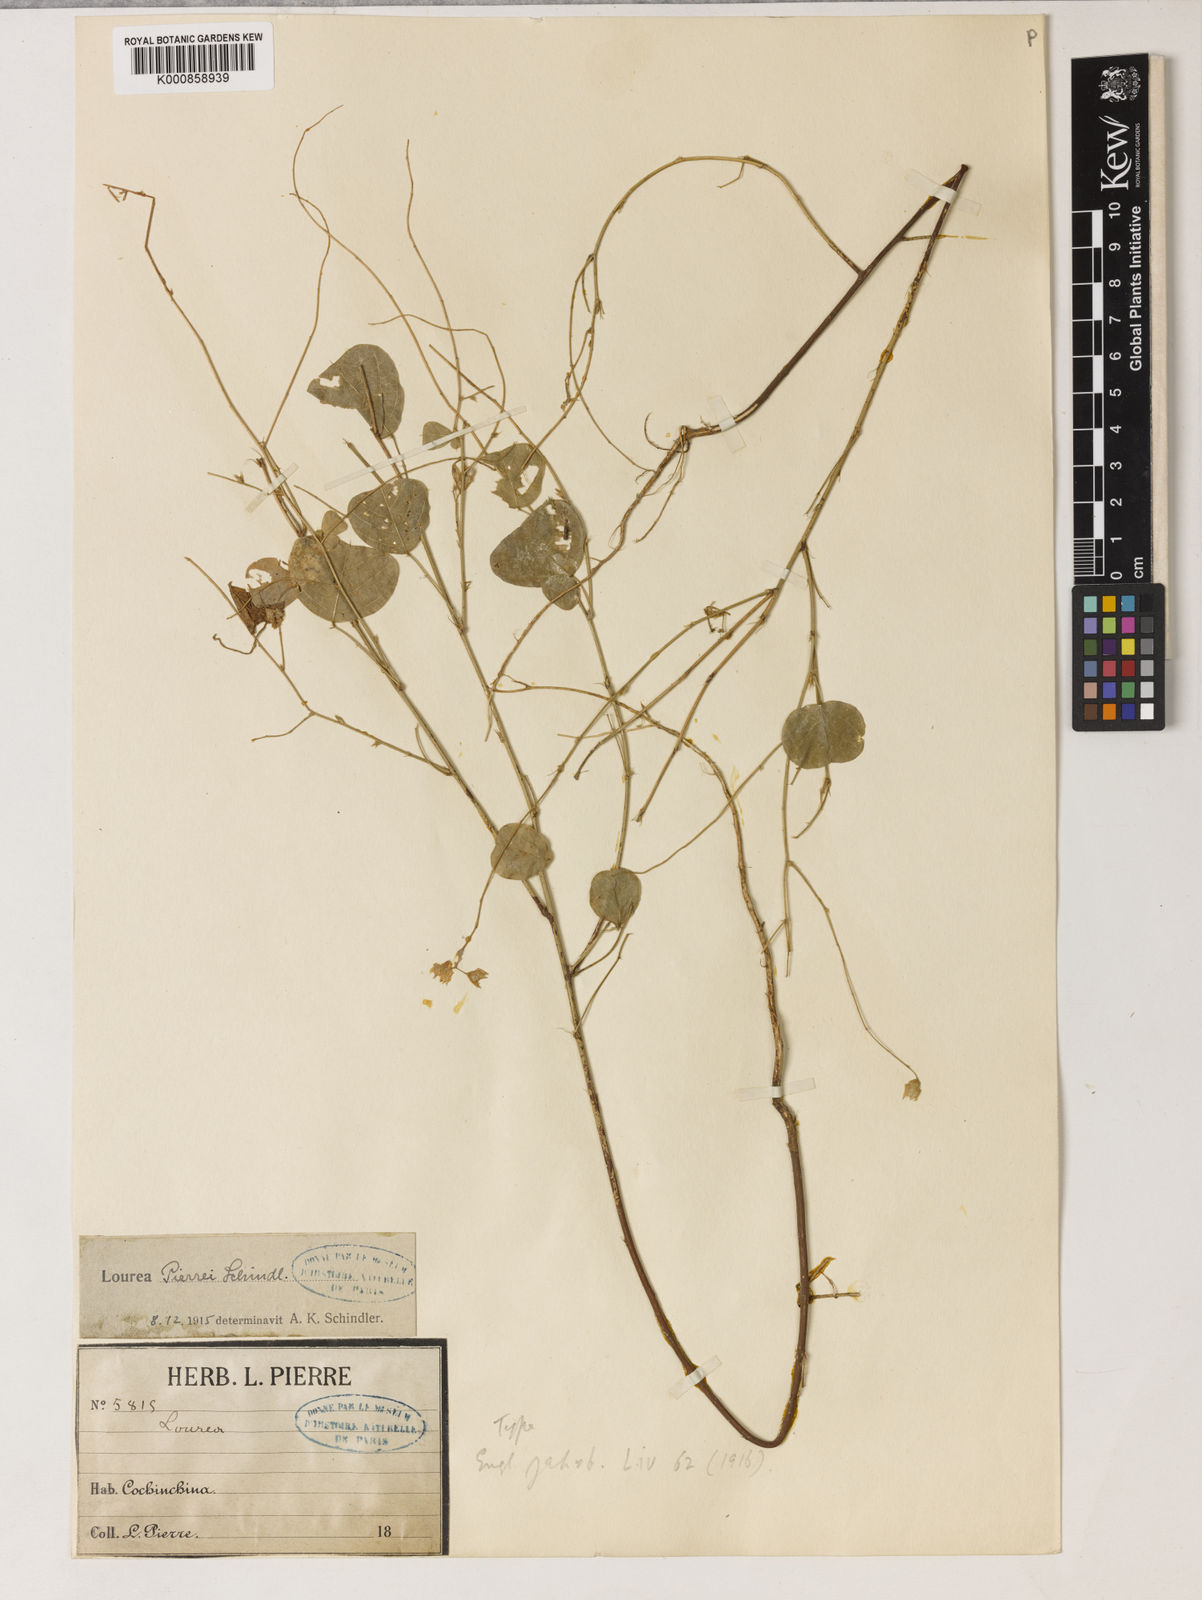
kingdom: Plantae
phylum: Tracheophyta
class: Magnoliopsida
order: Fabales
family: Fabaceae
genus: Christia
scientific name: Christia pierrei
